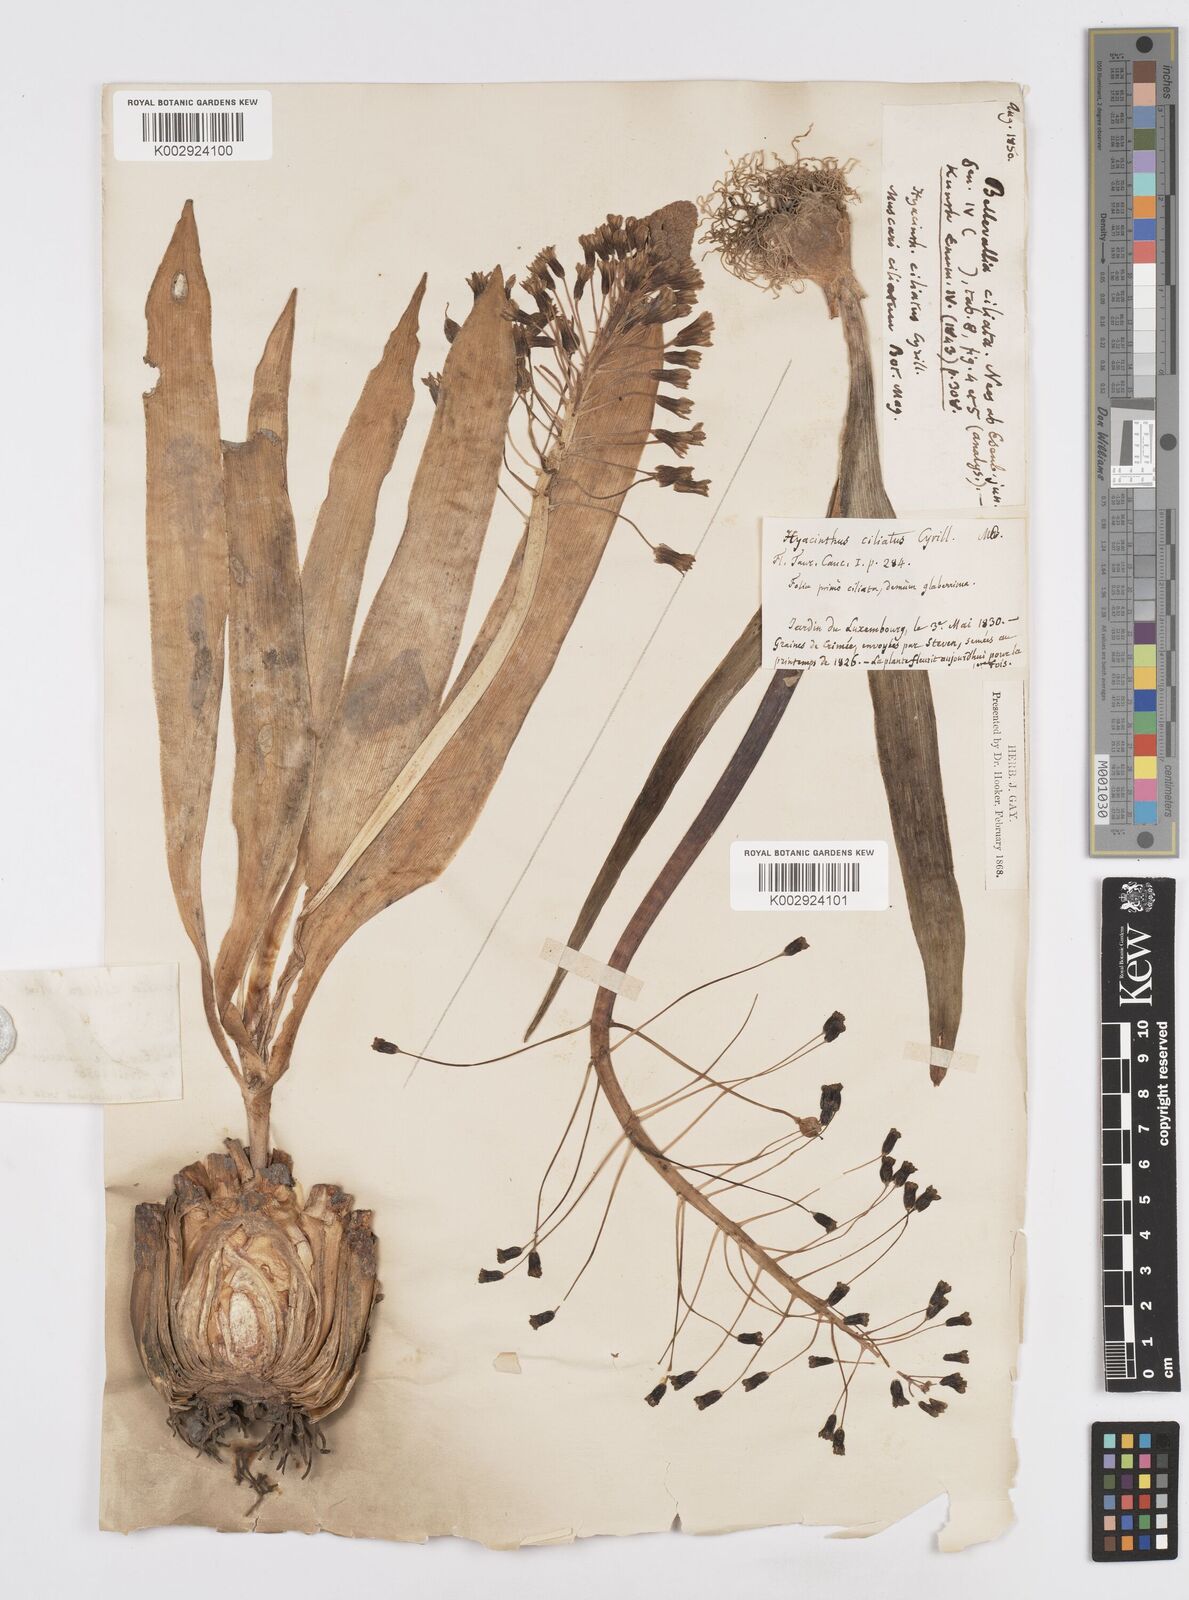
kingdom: Plantae
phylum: Tracheophyta
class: Liliopsida
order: Asparagales
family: Asparagaceae
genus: Bellevalia
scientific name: Bellevalia ciliata
